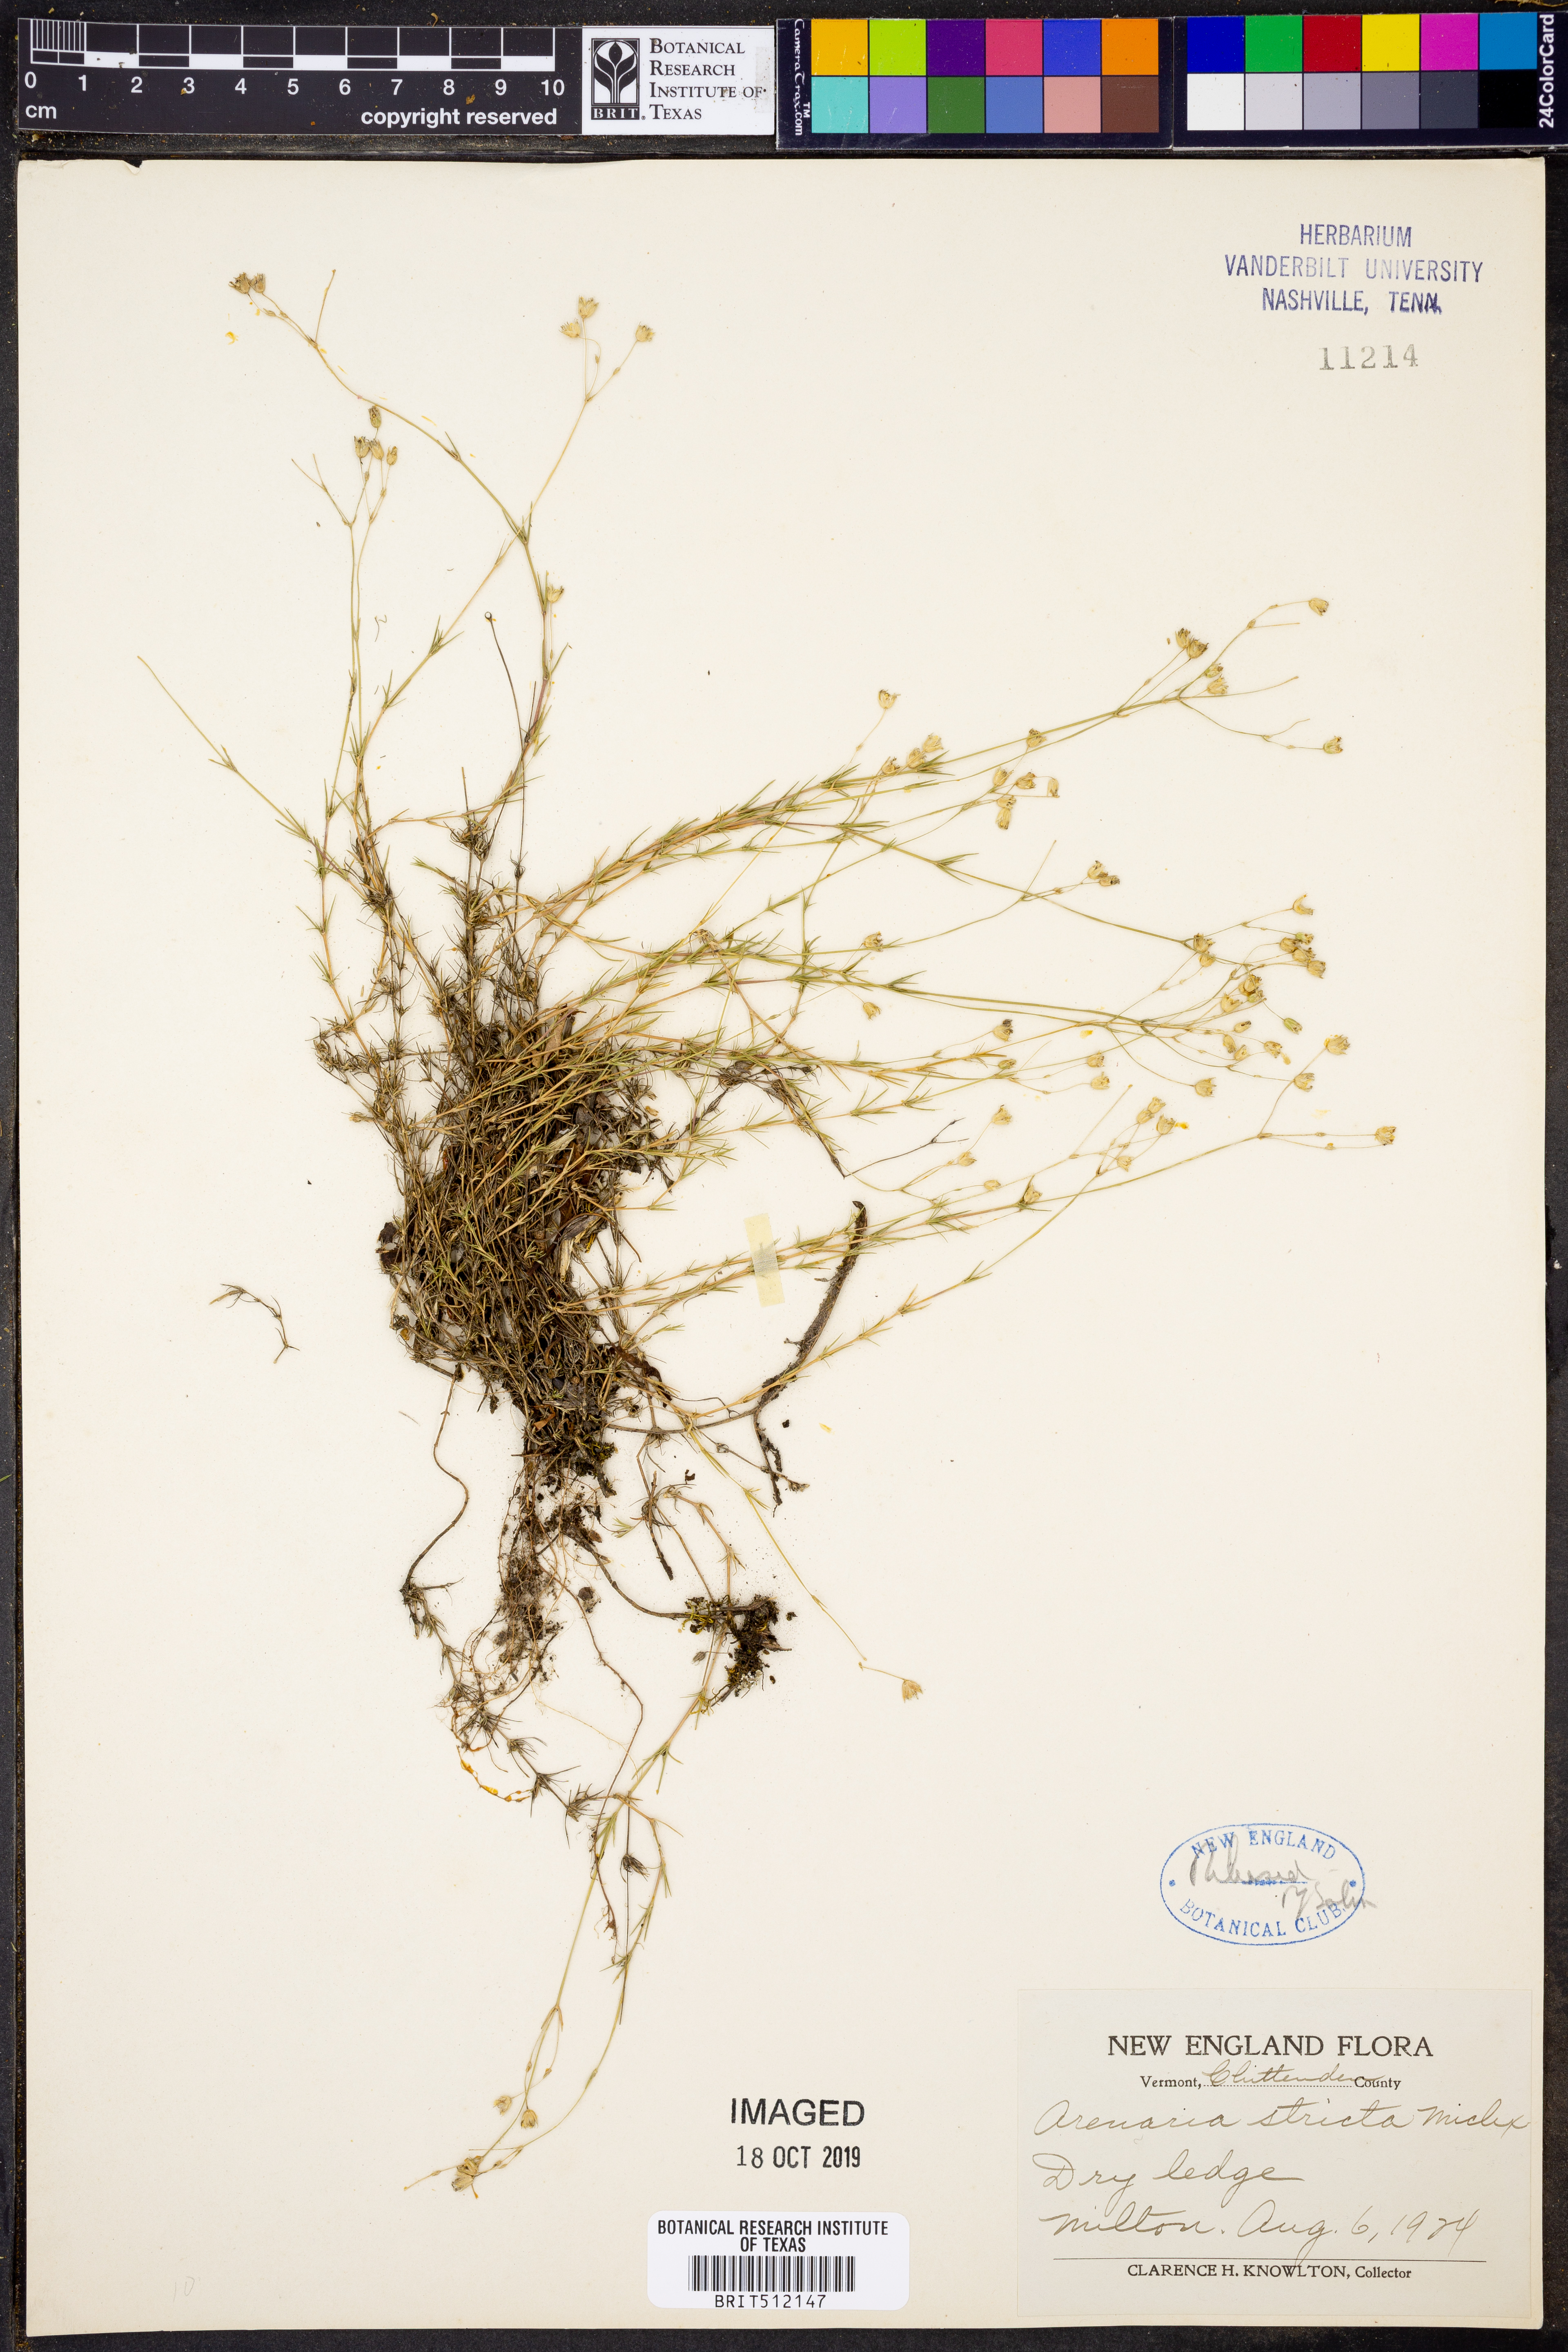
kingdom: Plantae
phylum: Tracheophyta
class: Magnoliopsida
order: Caryophyllales
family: Caryophyllaceae
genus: Sabulina
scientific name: Sabulina michauxii
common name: Michaux's stitchwort
